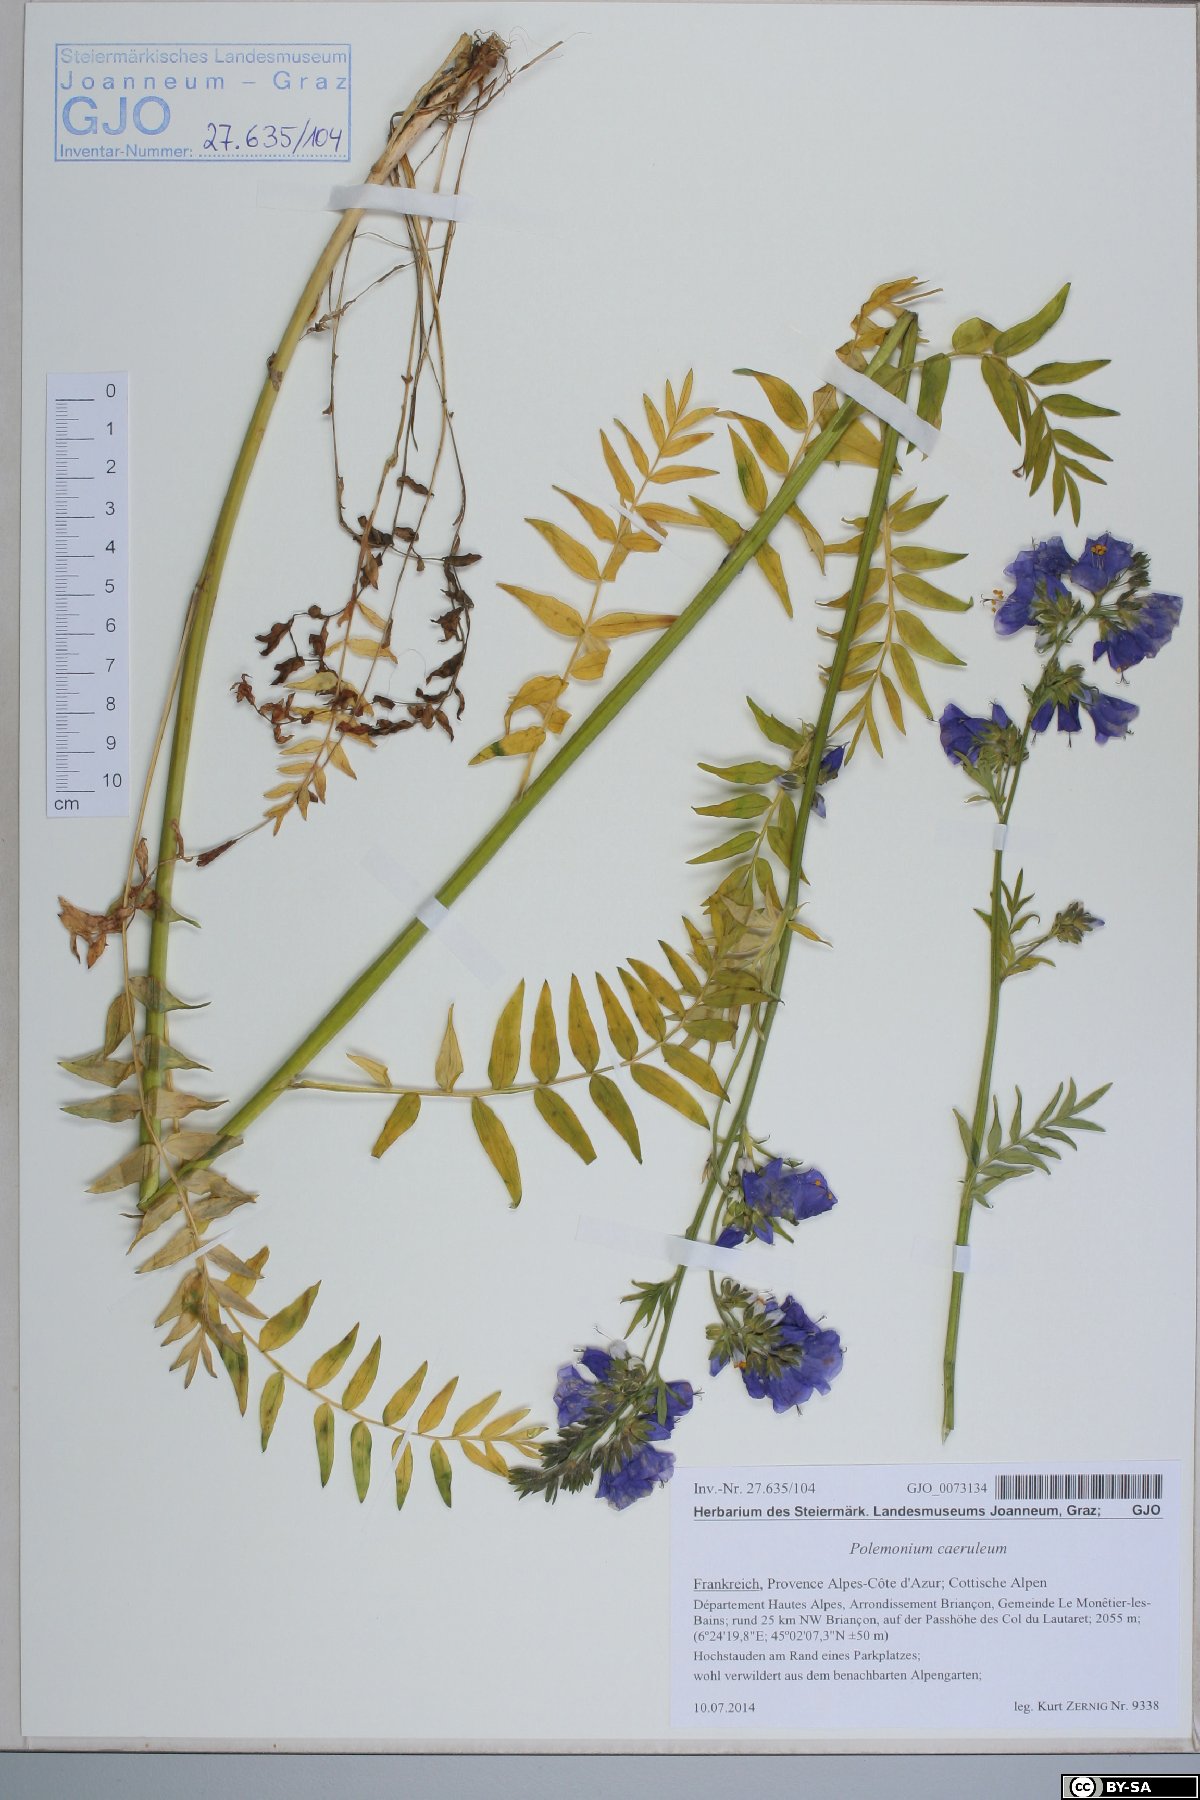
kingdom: Plantae
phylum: Tracheophyta
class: Magnoliopsida
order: Ericales
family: Polemoniaceae
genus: Polemonium
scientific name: Polemonium caeruleum
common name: Jacob's-ladder
